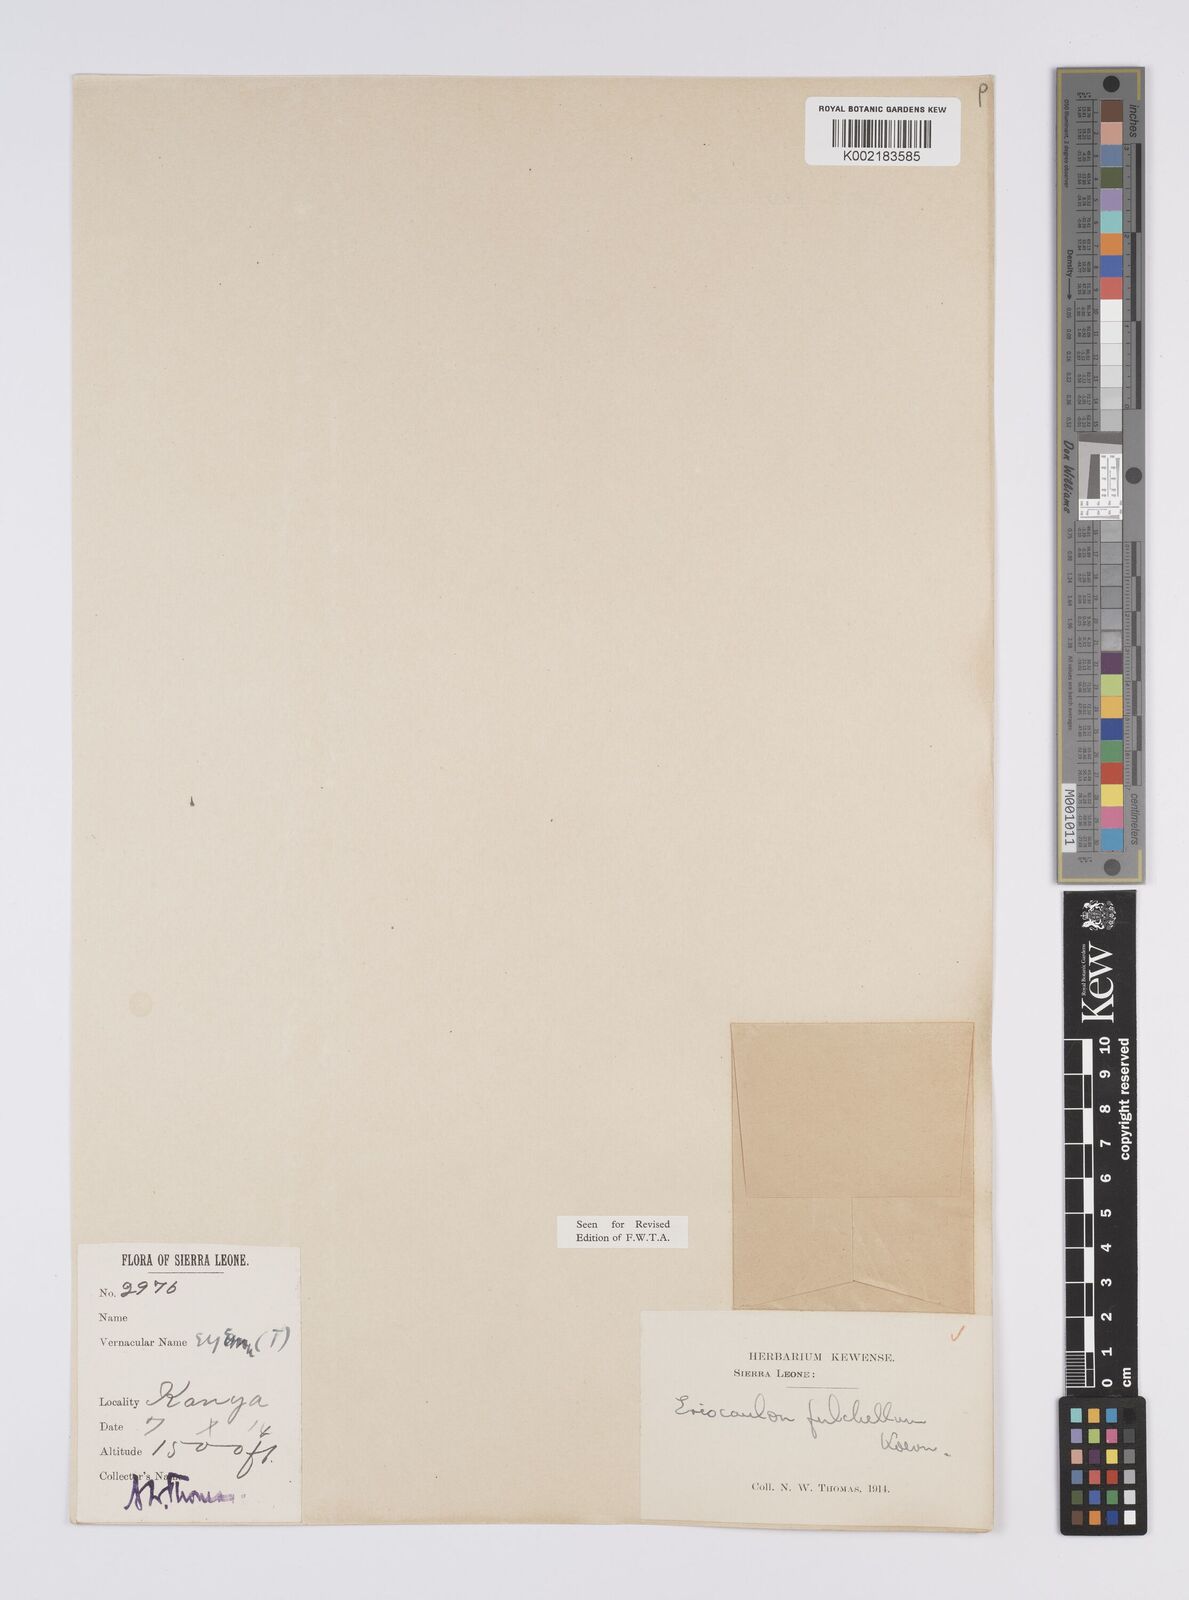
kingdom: Plantae
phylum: Tracheophyta
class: Liliopsida
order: Poales
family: Eriocaulaceae
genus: Eriocaulon
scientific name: Eriocaulon pulchellum
